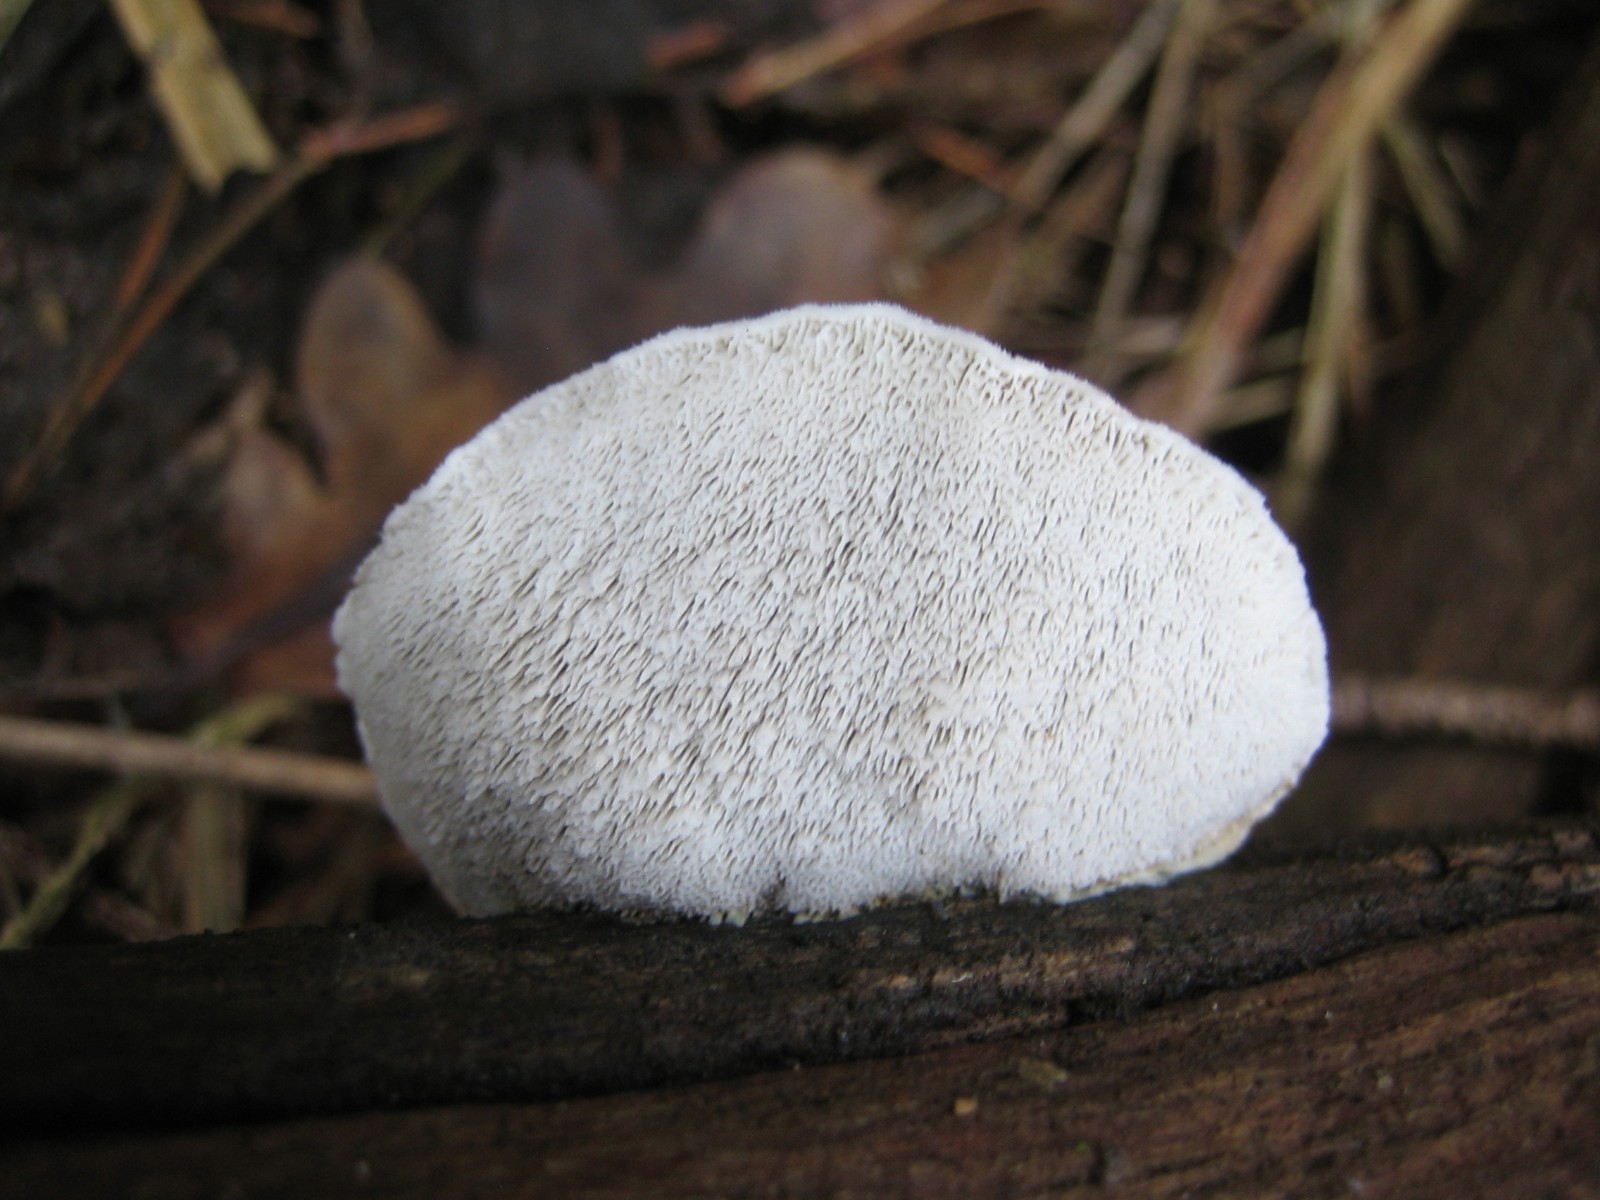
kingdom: Fungi
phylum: Basidiomycota
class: Agaricomycetes
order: Polyporales
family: Polyporaceae
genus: Cyanosporus
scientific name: Cyanosporus caesius
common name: blålig kødporesvamp
